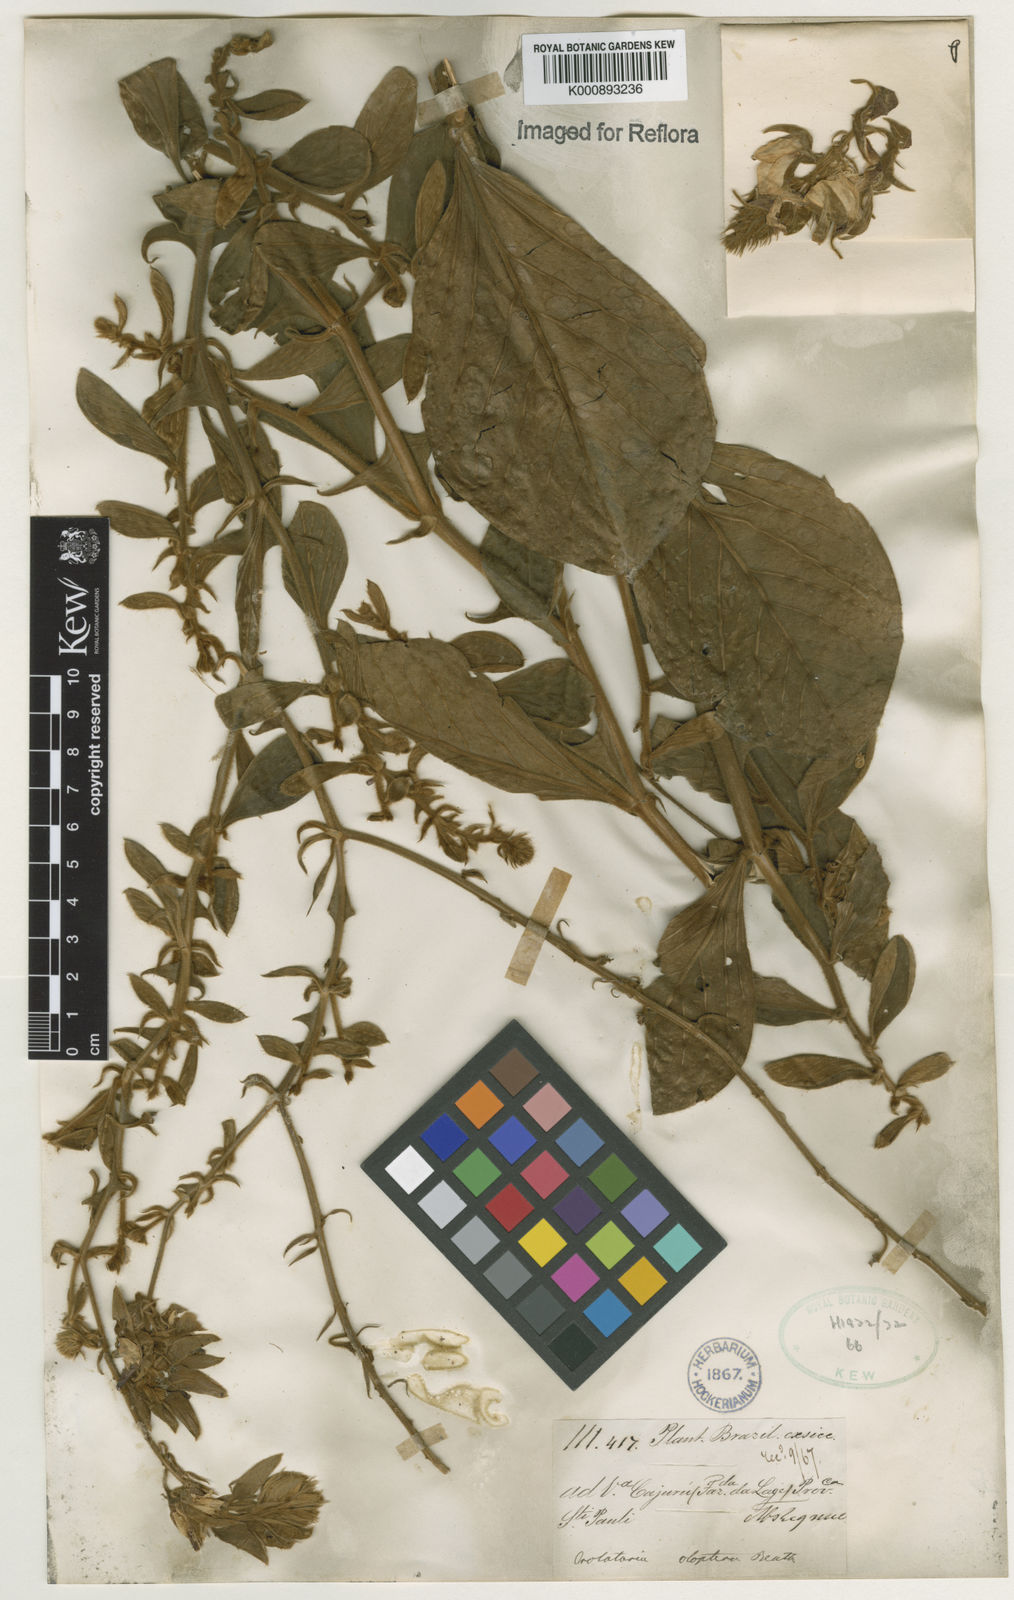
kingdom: Plantae
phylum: Tracheophyta
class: Magnoliopsida
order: Fabales
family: Fabaceae
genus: Crotalaria
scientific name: Crotalaria otoptera
